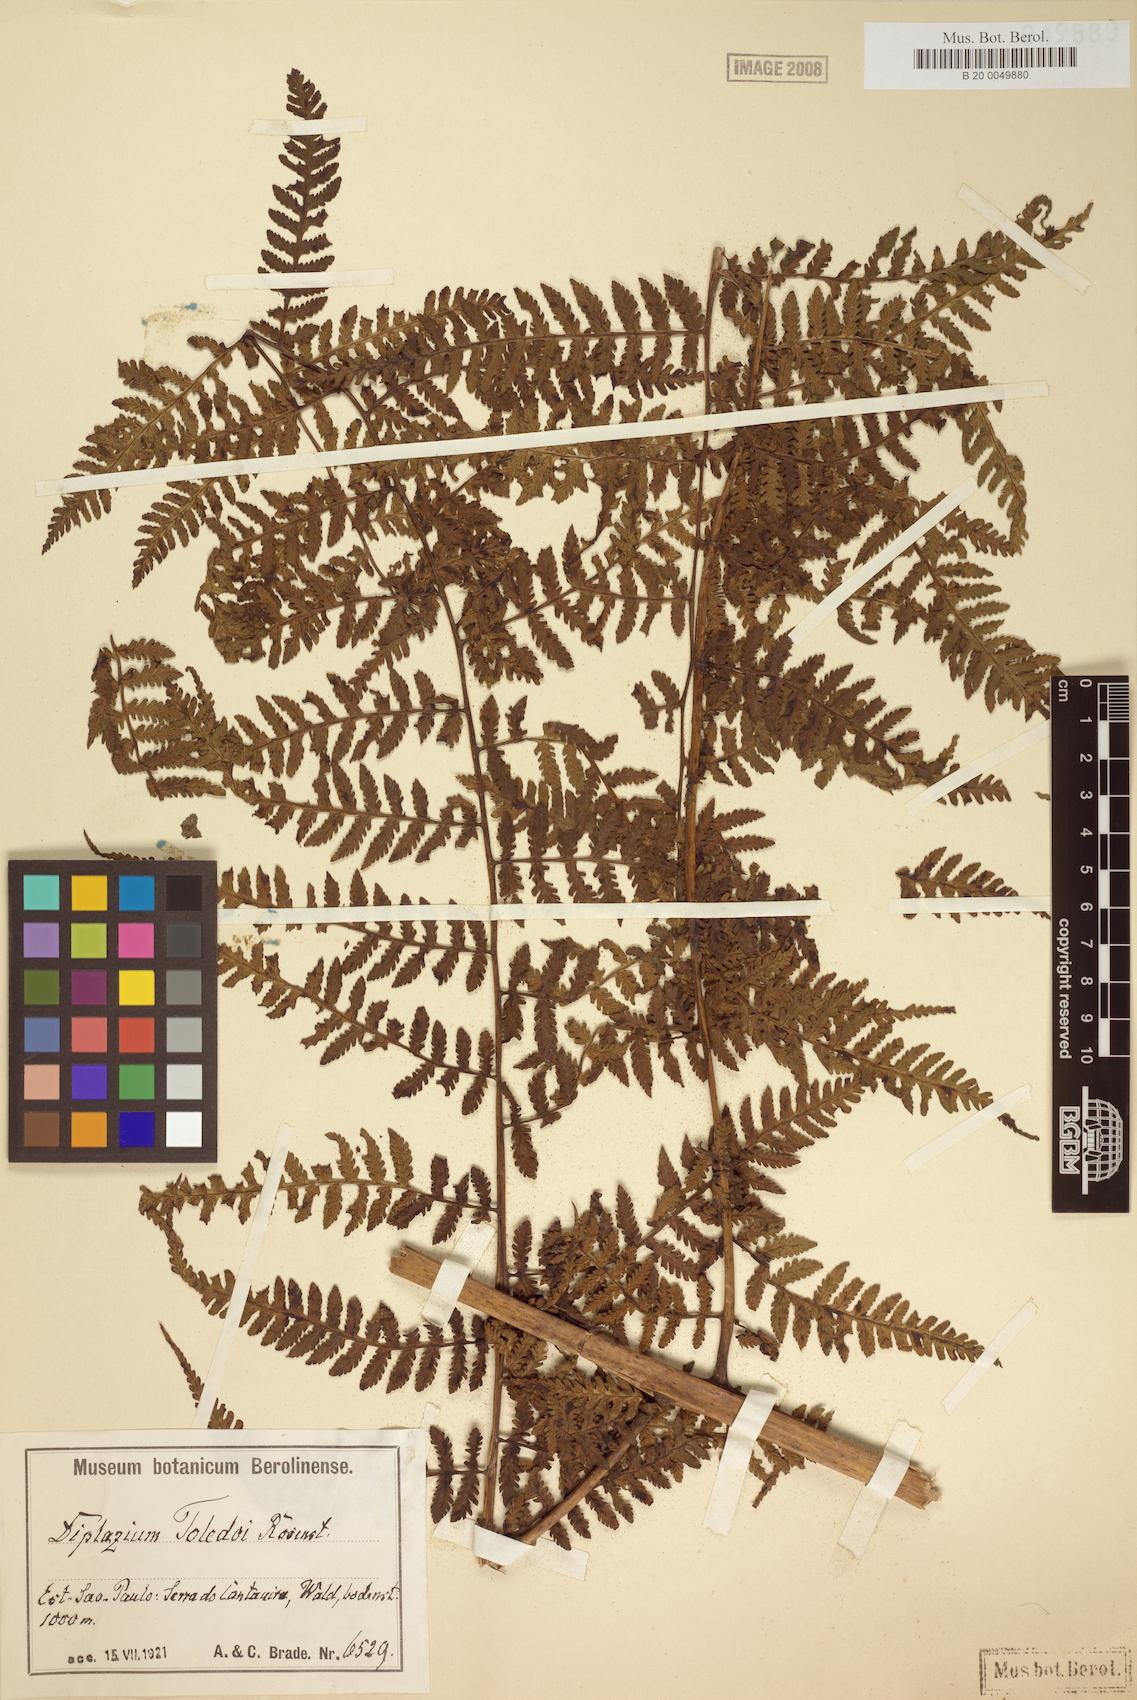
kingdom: Plantae
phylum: Tracheophyta
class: Polypodiopsida
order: Polypodiales
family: Athyriaceae
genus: Diplazium
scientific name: Diplazium tamandarei
